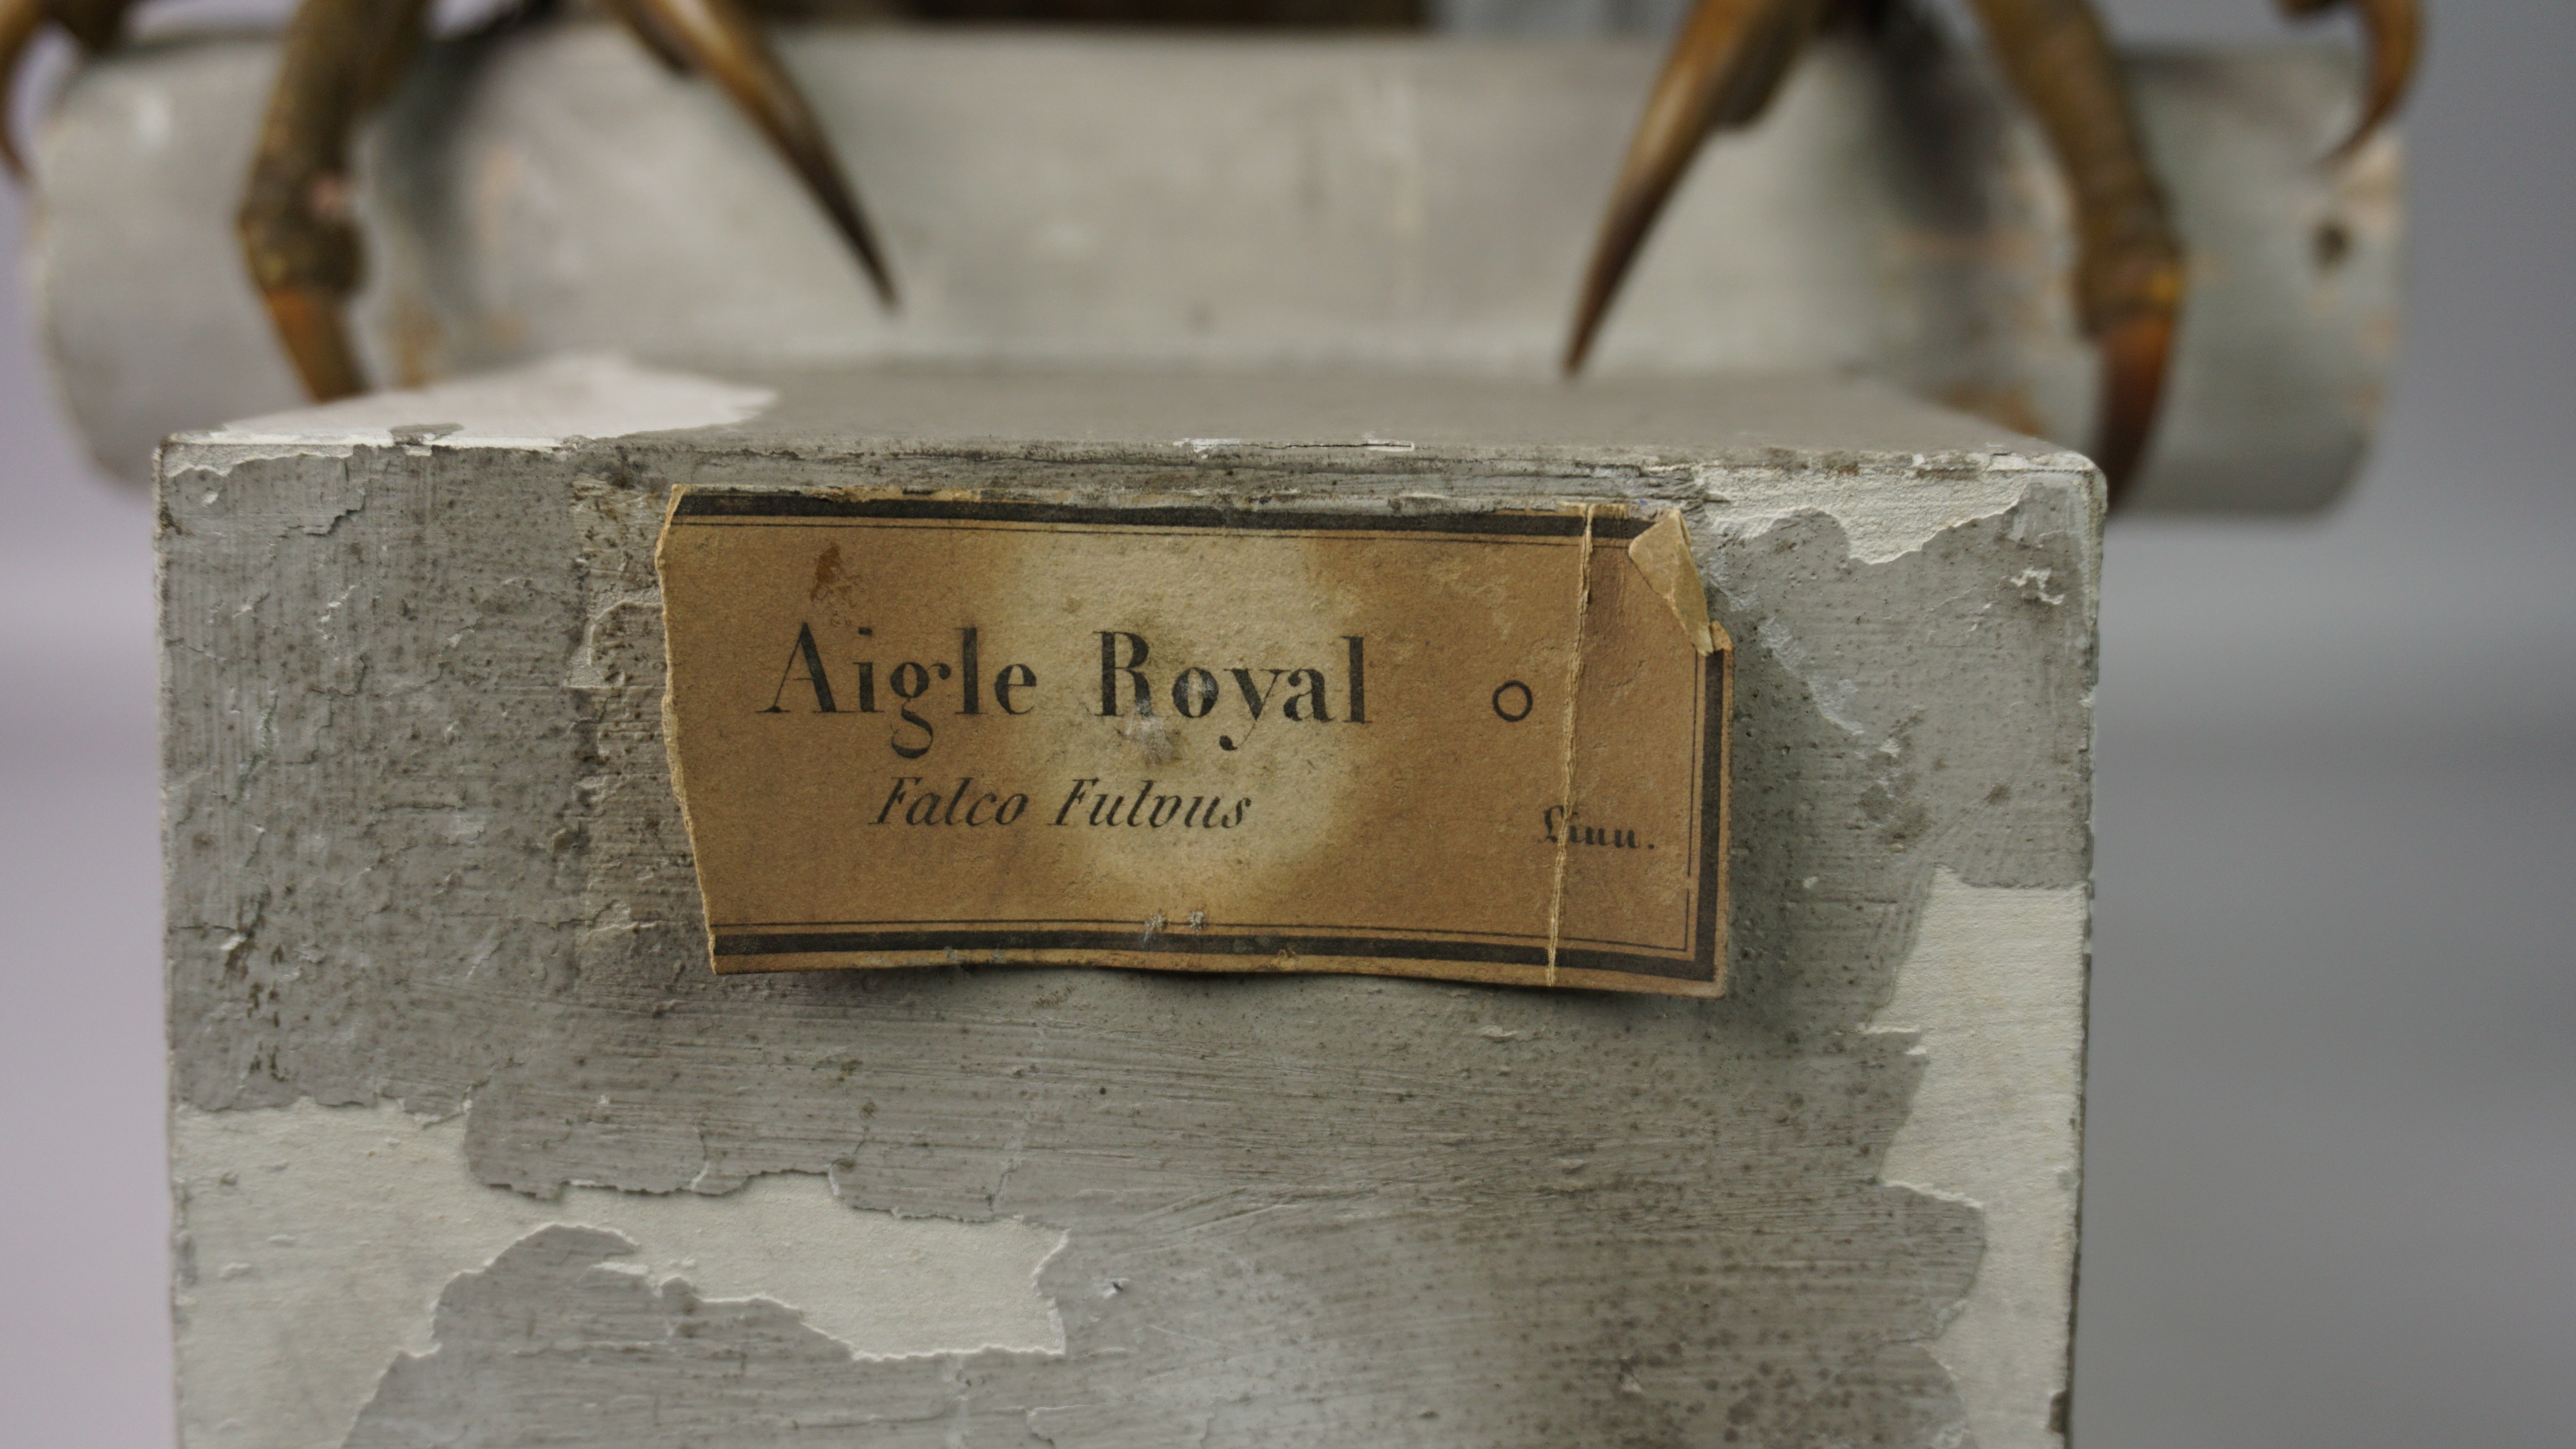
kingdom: Animalia
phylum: Chordata
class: Aves
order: Accipitriformes
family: Accipitridae
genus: Aquila
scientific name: Aquila chrysaetos
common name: Golden eagle
